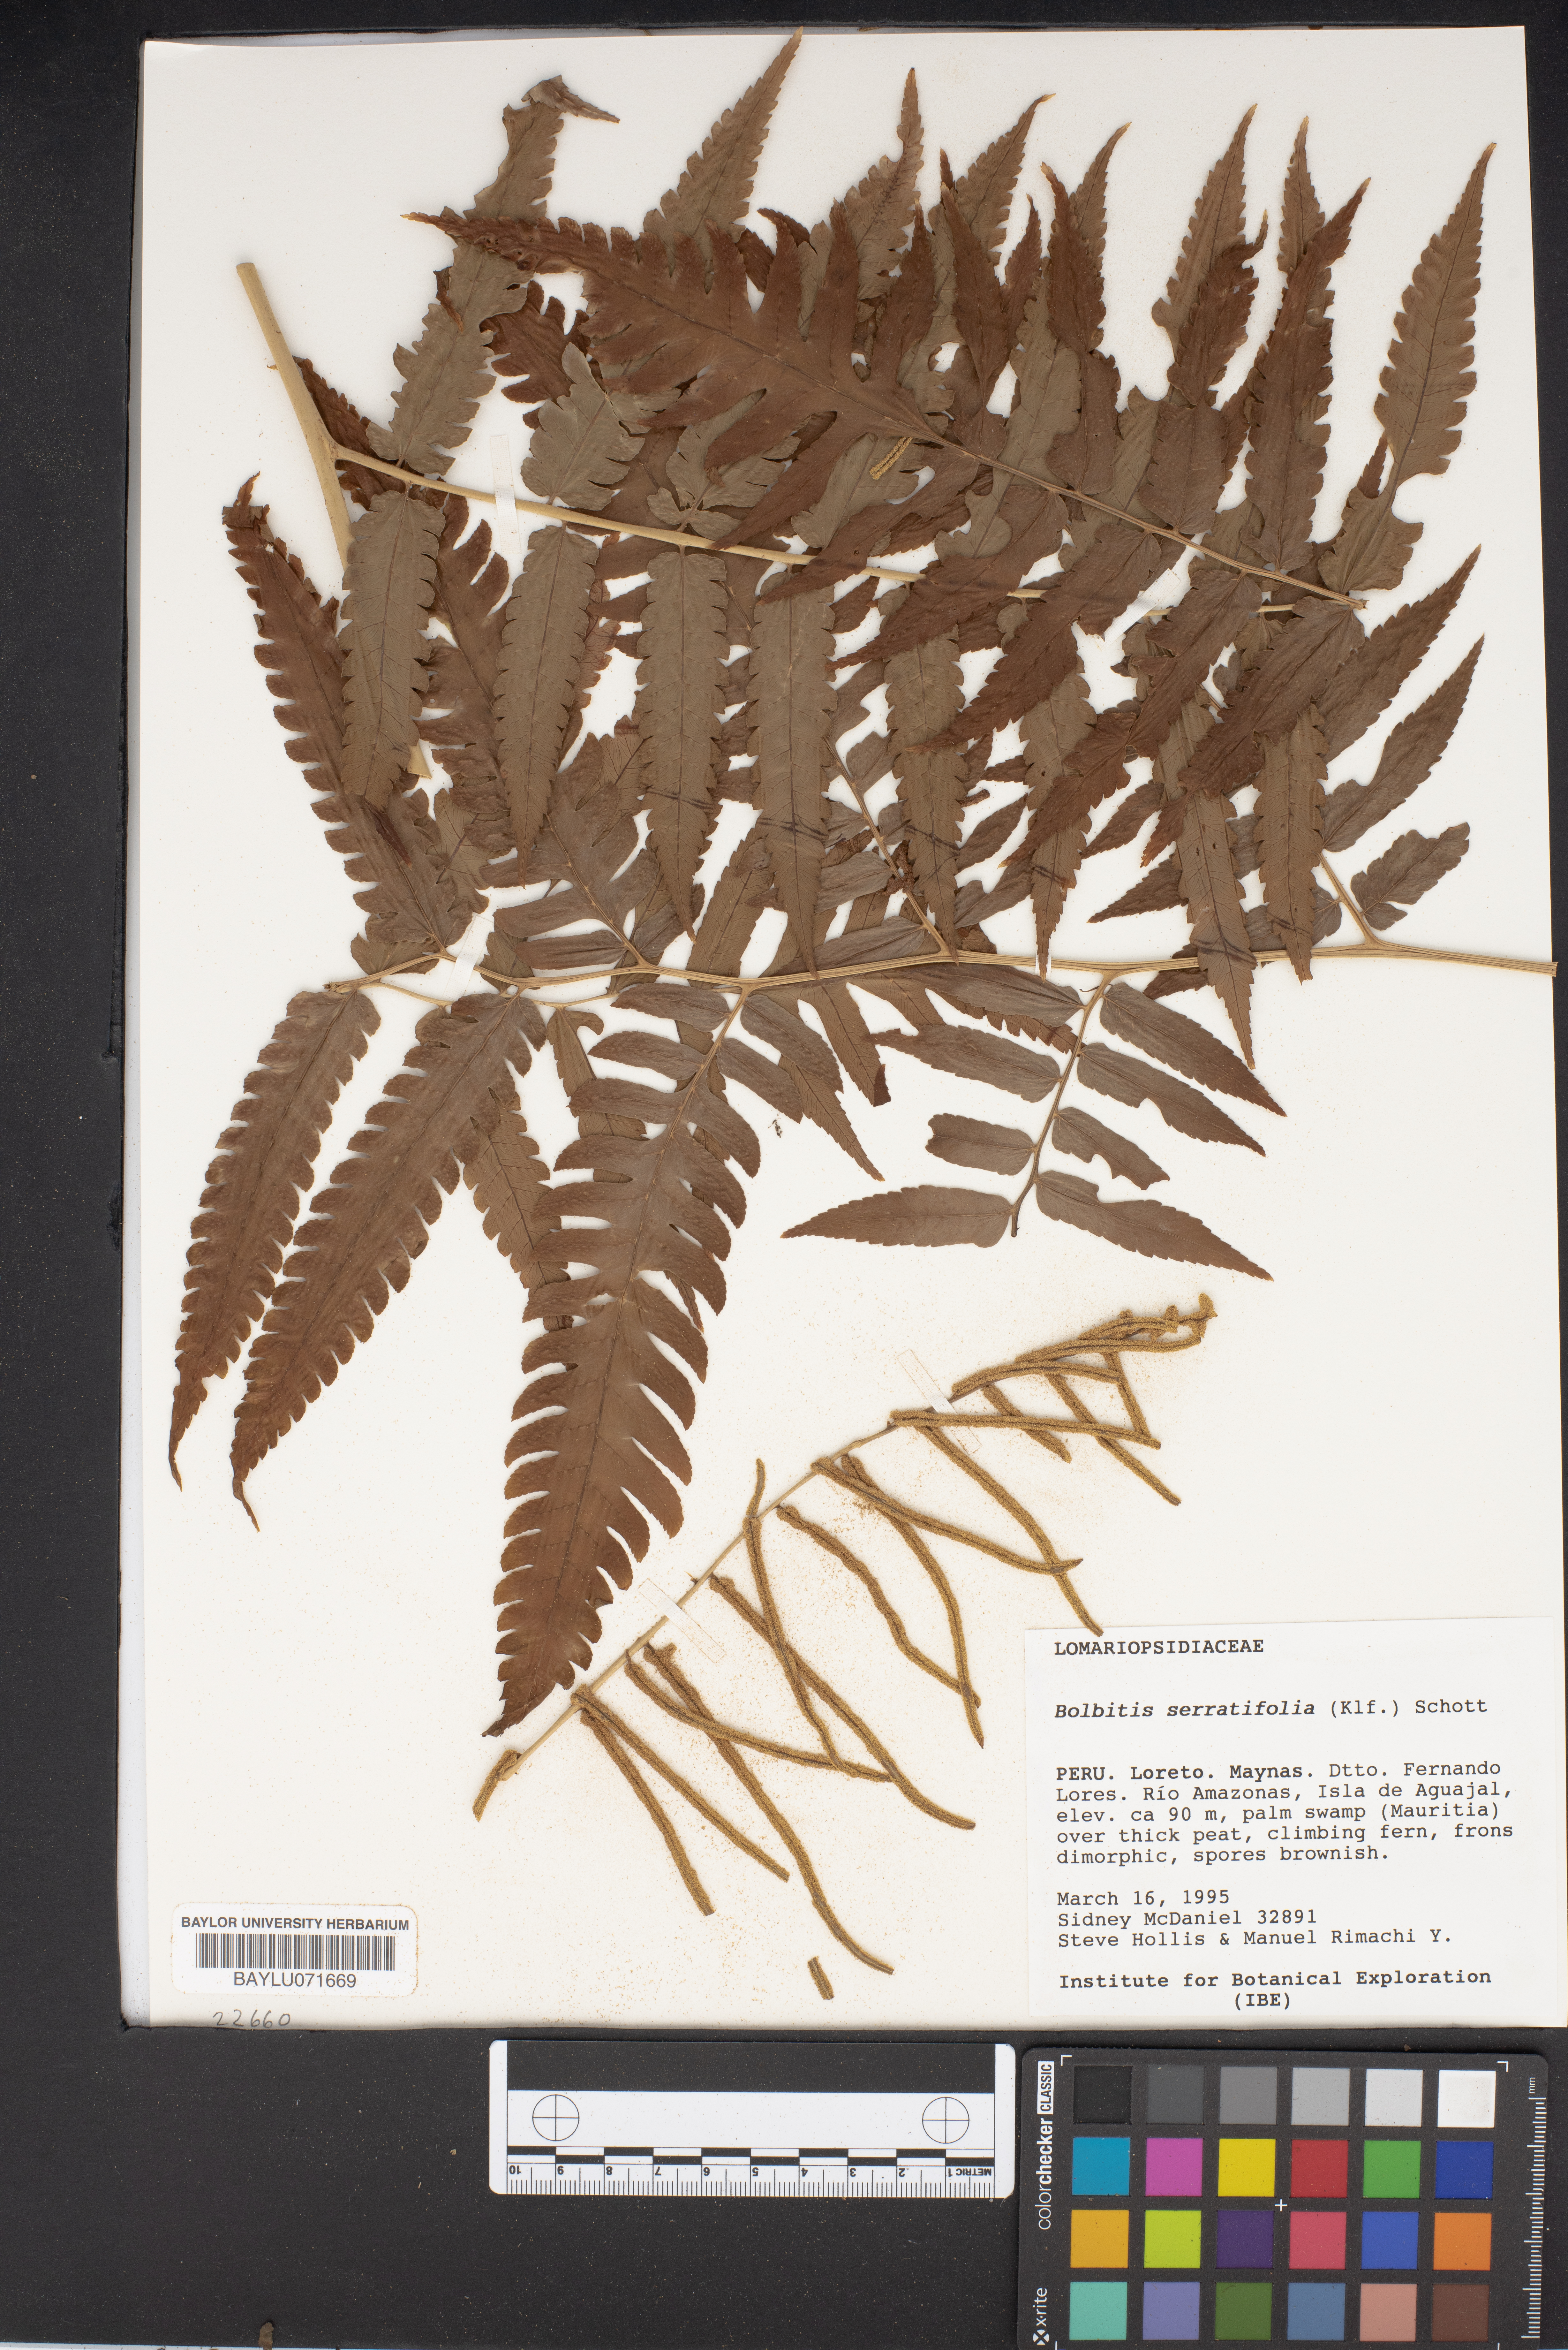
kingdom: Plantae
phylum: Tracheophyta
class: Polypodiopsida
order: Polypodiales
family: Dryopteridaceae
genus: Bolbitis
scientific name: Bolbitis serratifolia
